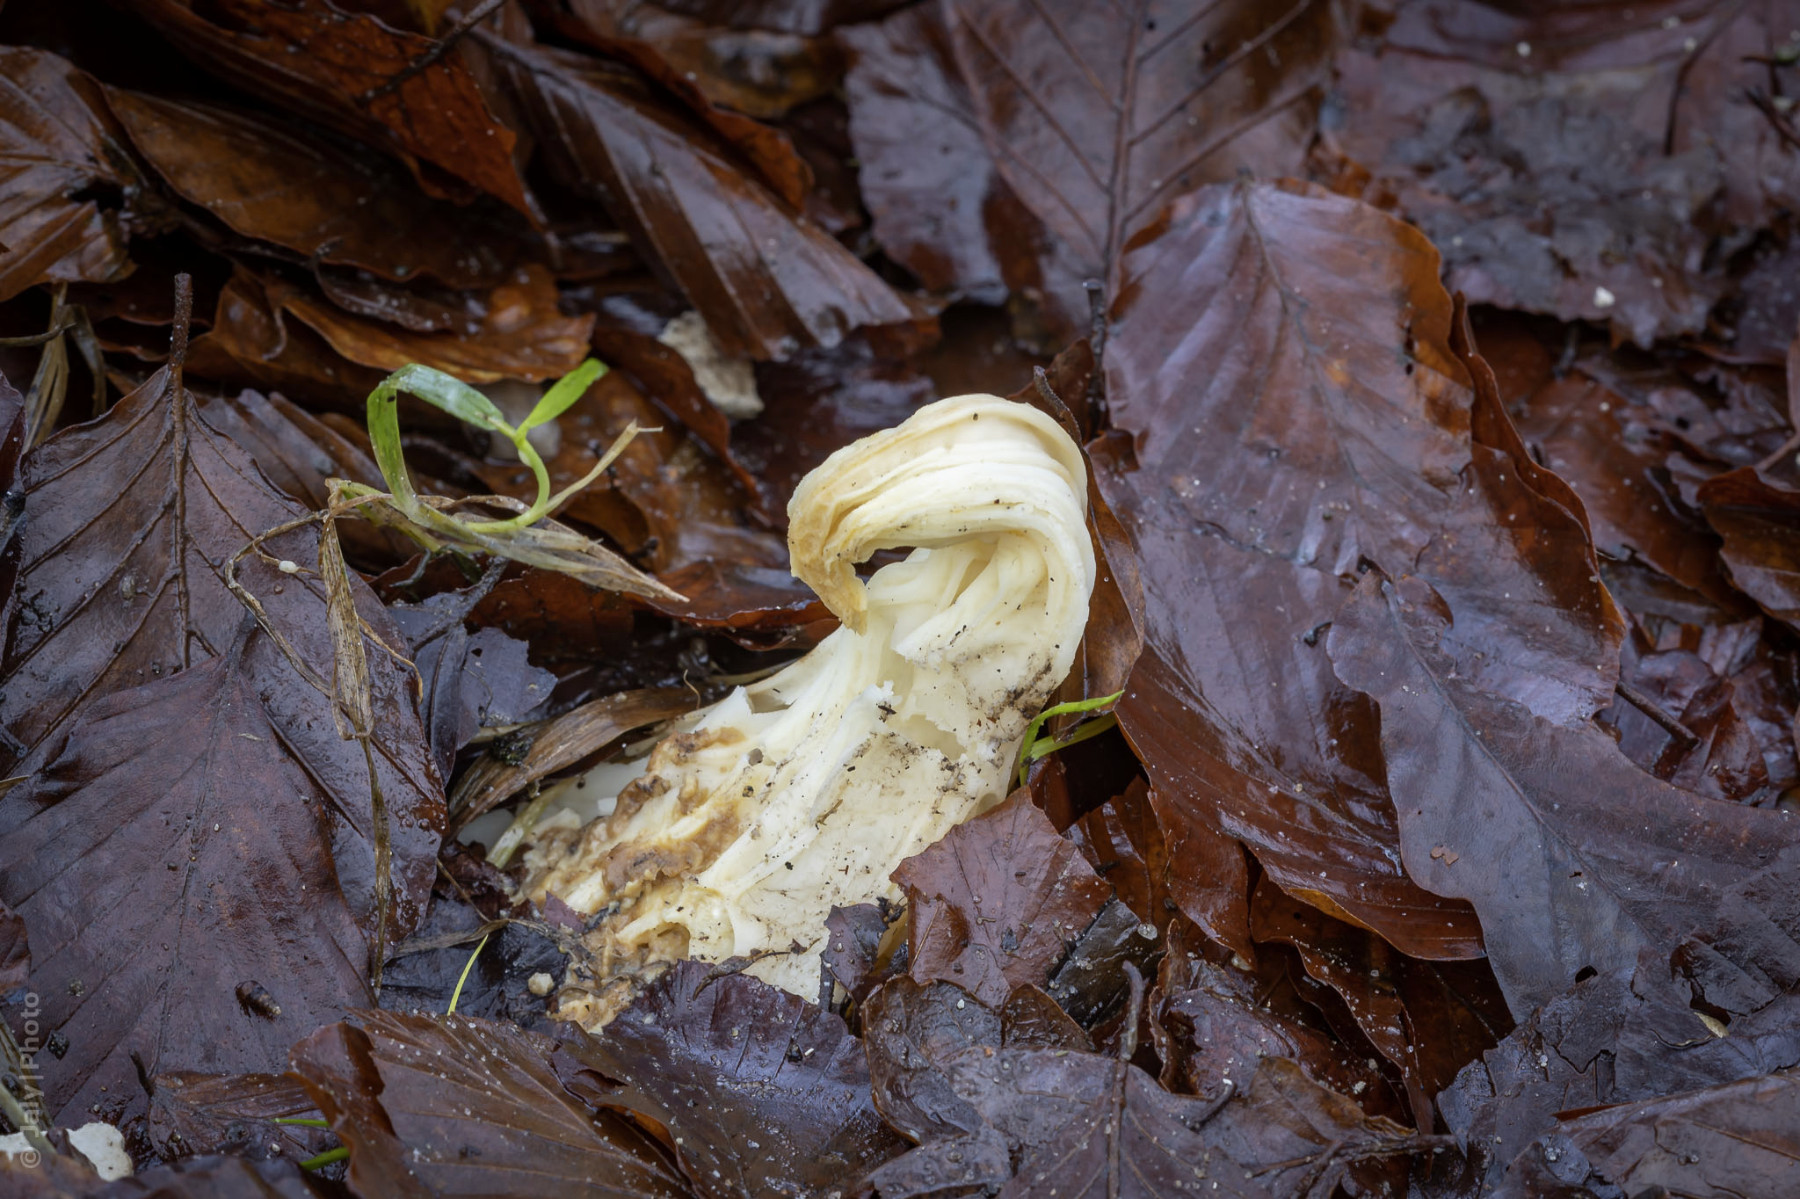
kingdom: Fungi
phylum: Ascomycota
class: Pezizomycetes
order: Pezizales
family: Helvellaceae
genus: Helvella
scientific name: Helvella crispa
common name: kruset foldhat
